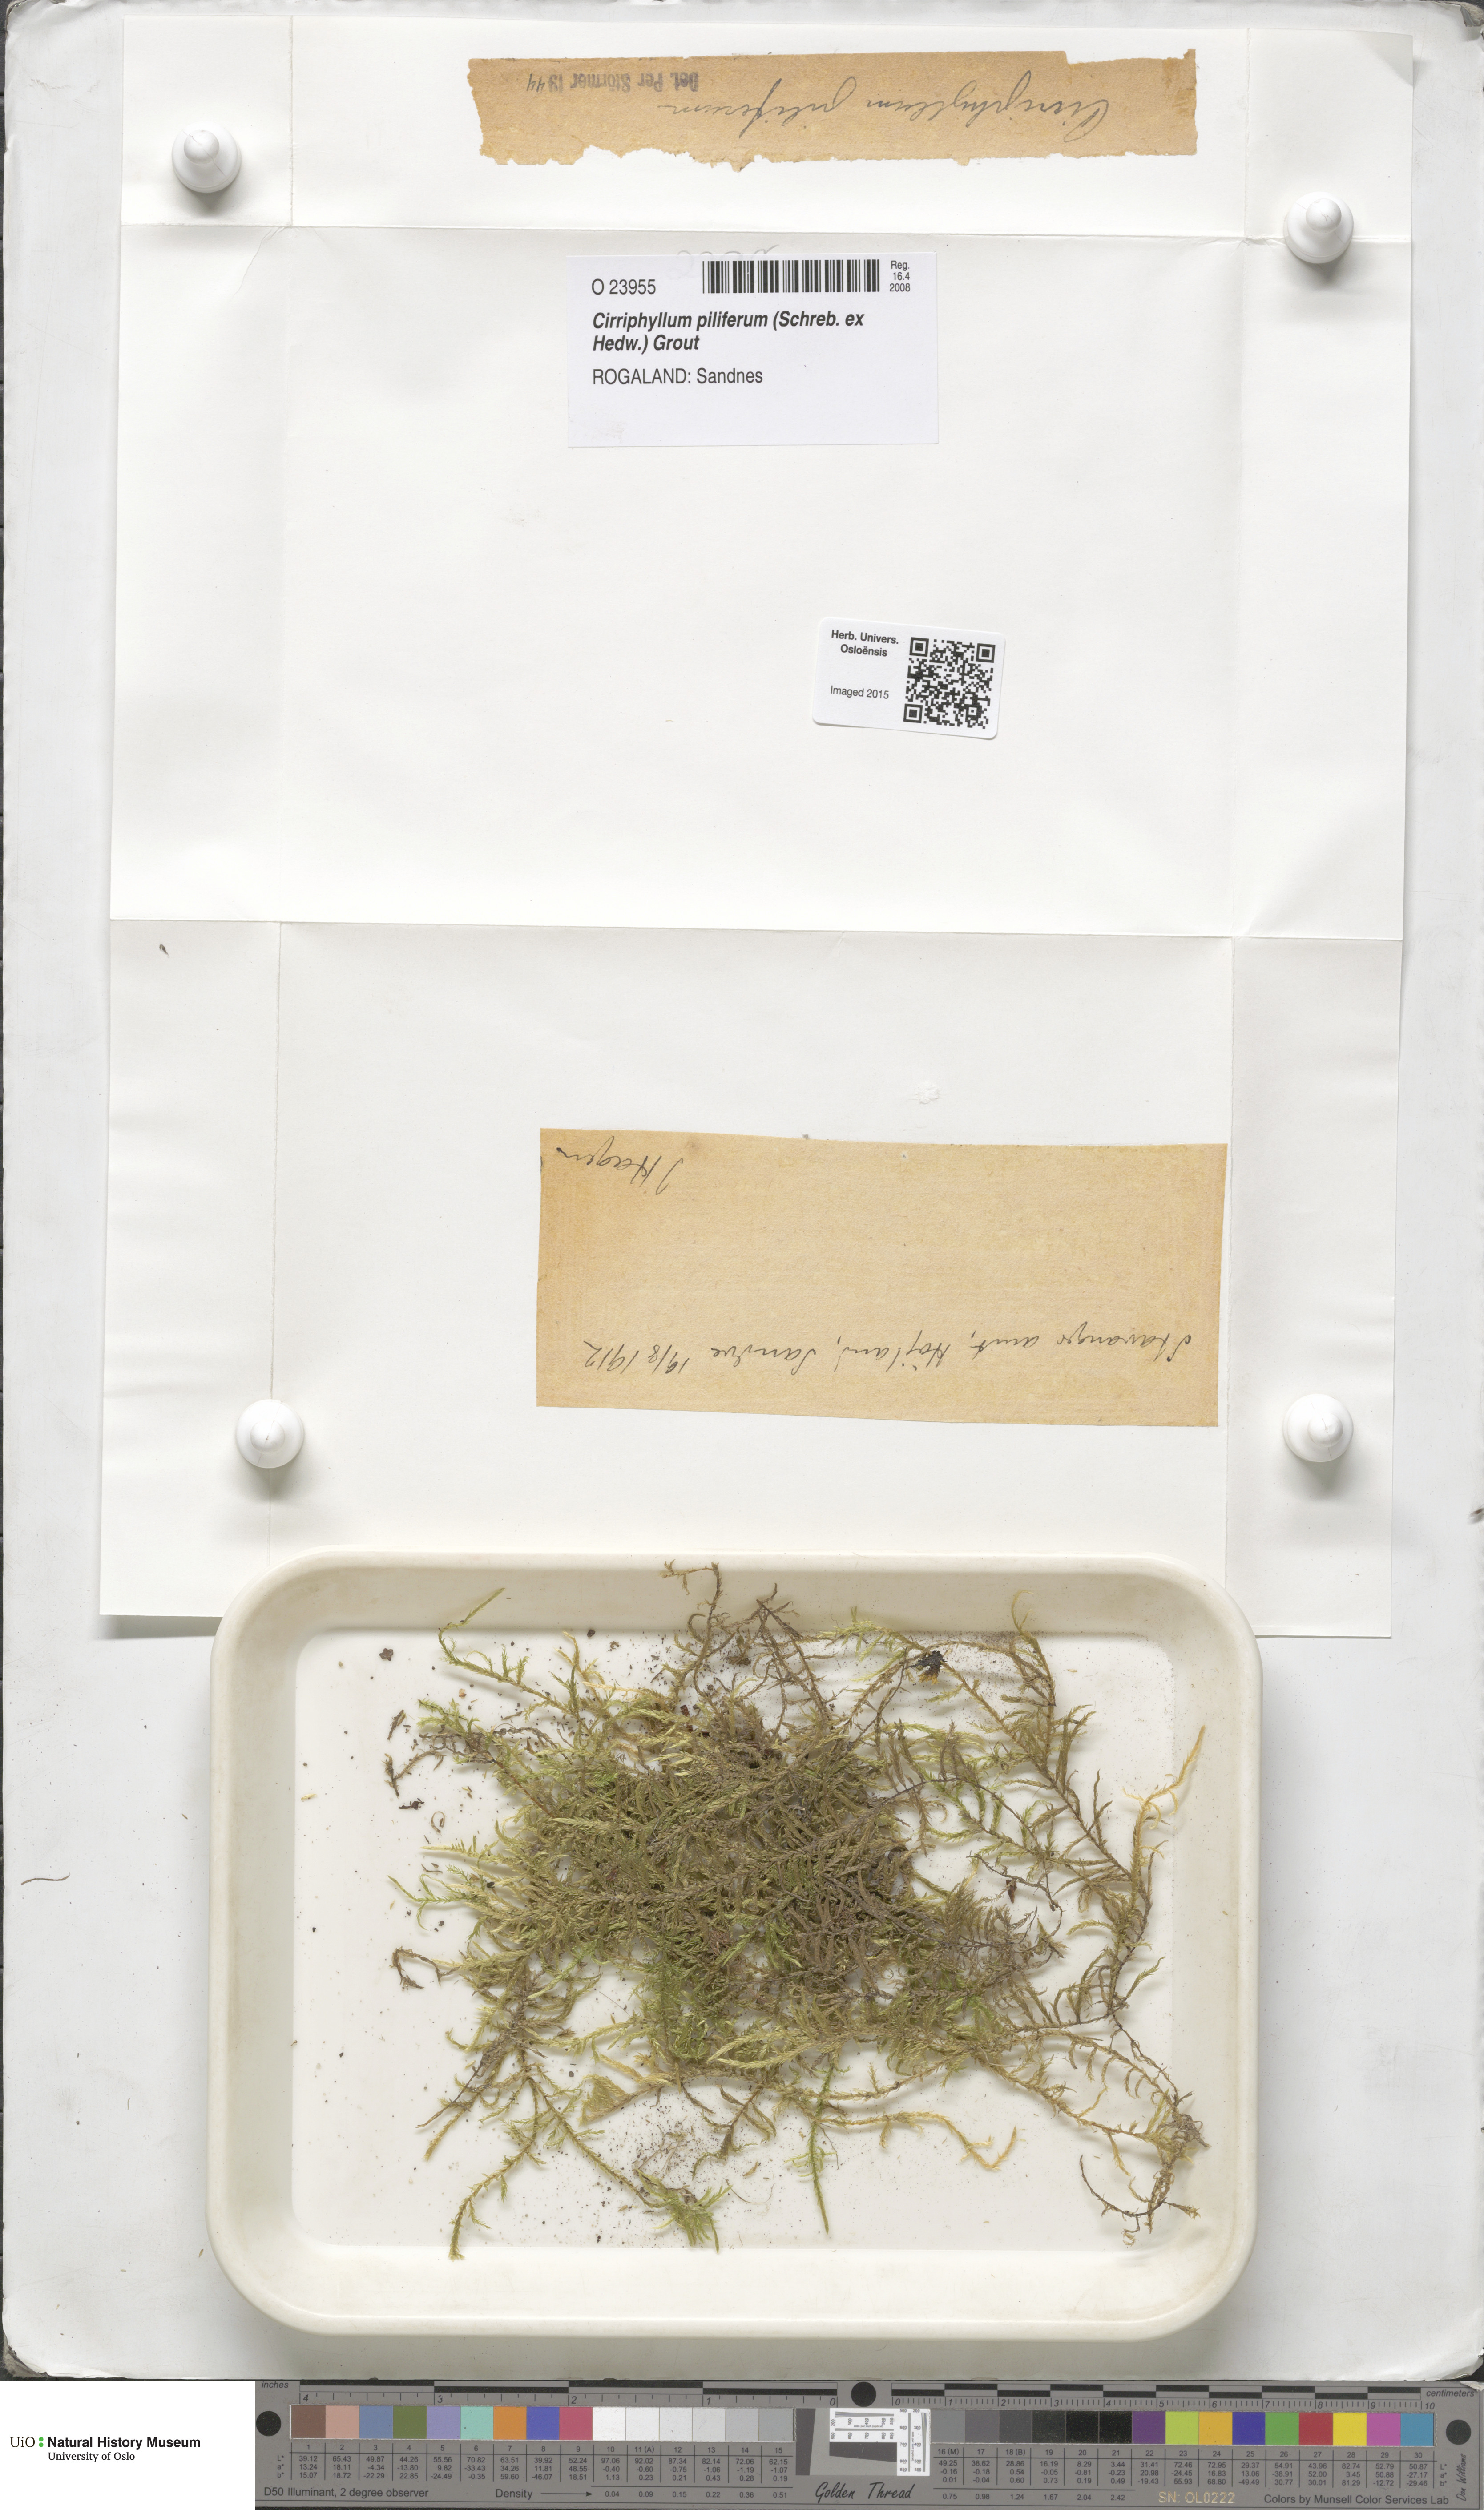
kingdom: Plantae
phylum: Bryophyta
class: Bryopsida
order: Hypnales
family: Brachytheciaceae
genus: Cirriphyllum
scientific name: Cirriphyllum piliferum
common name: Hair-pointed moss
